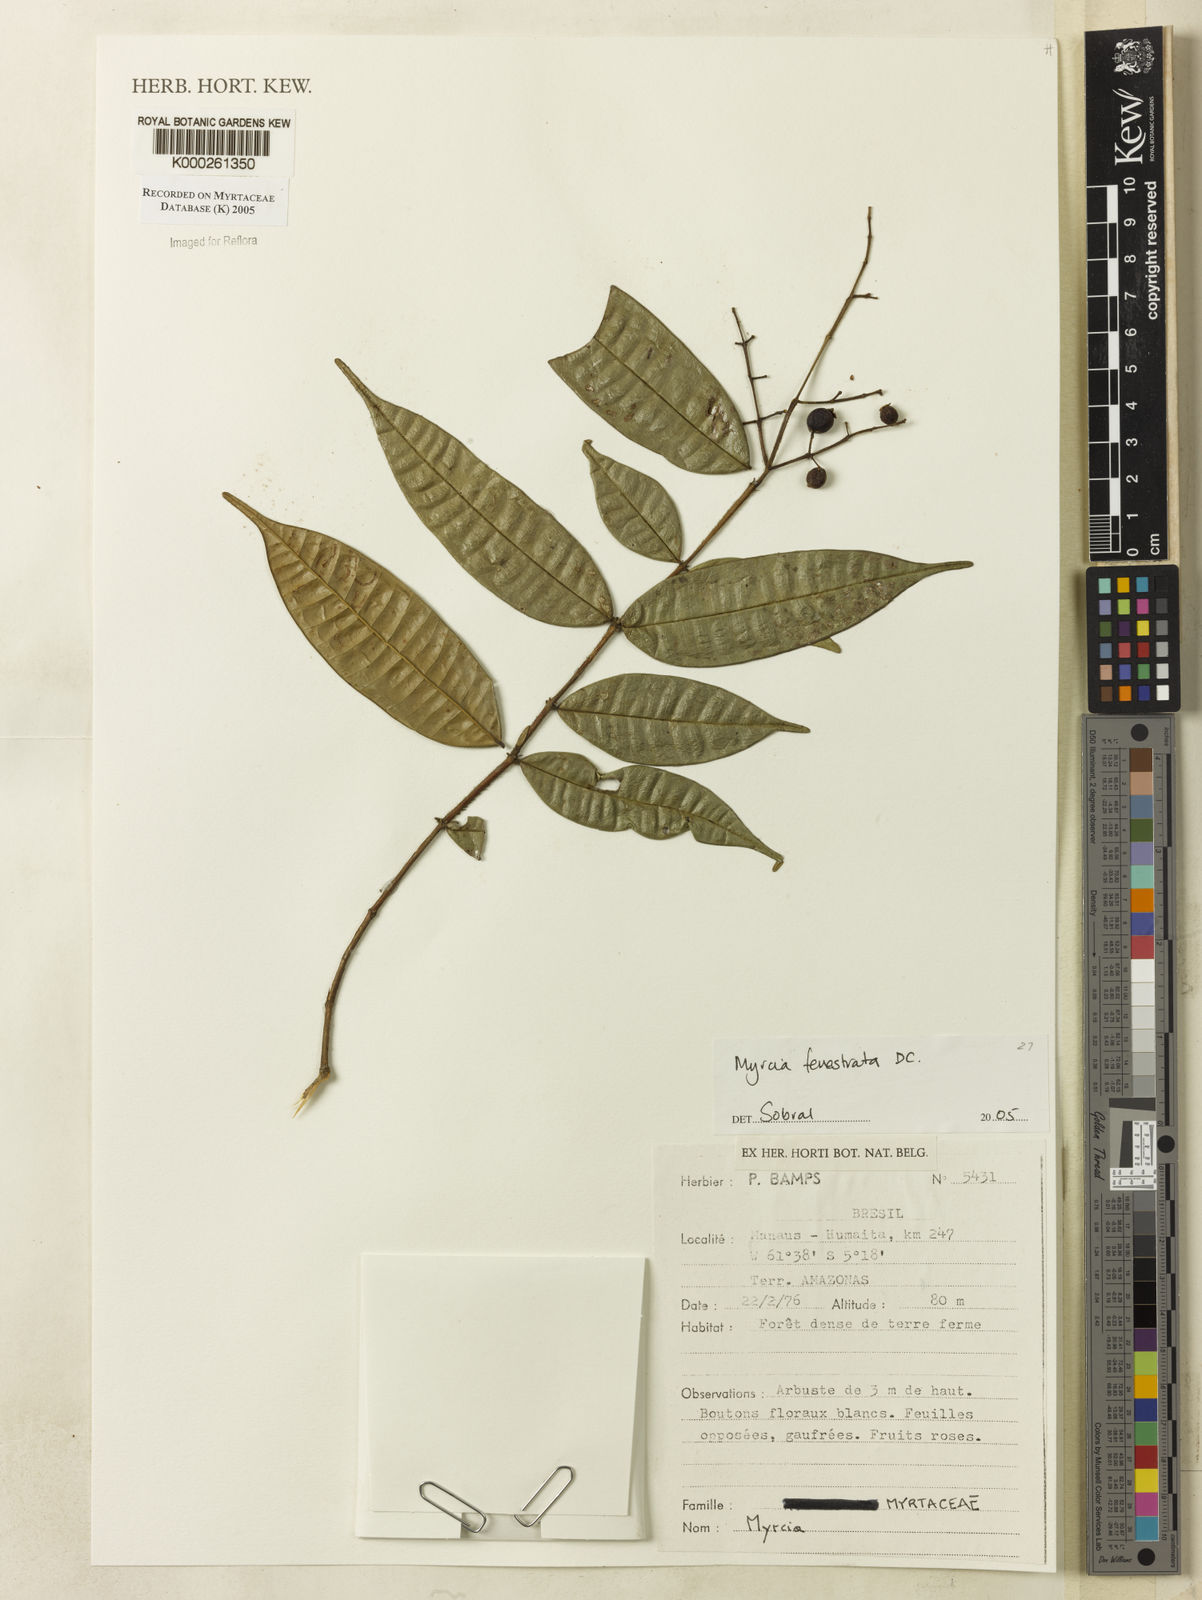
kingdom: Plantae
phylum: Tracheophyta
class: Magnoliopsida
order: Myrtales
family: Myrtaceae
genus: Myrcia
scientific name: Myrcia fenestrata
